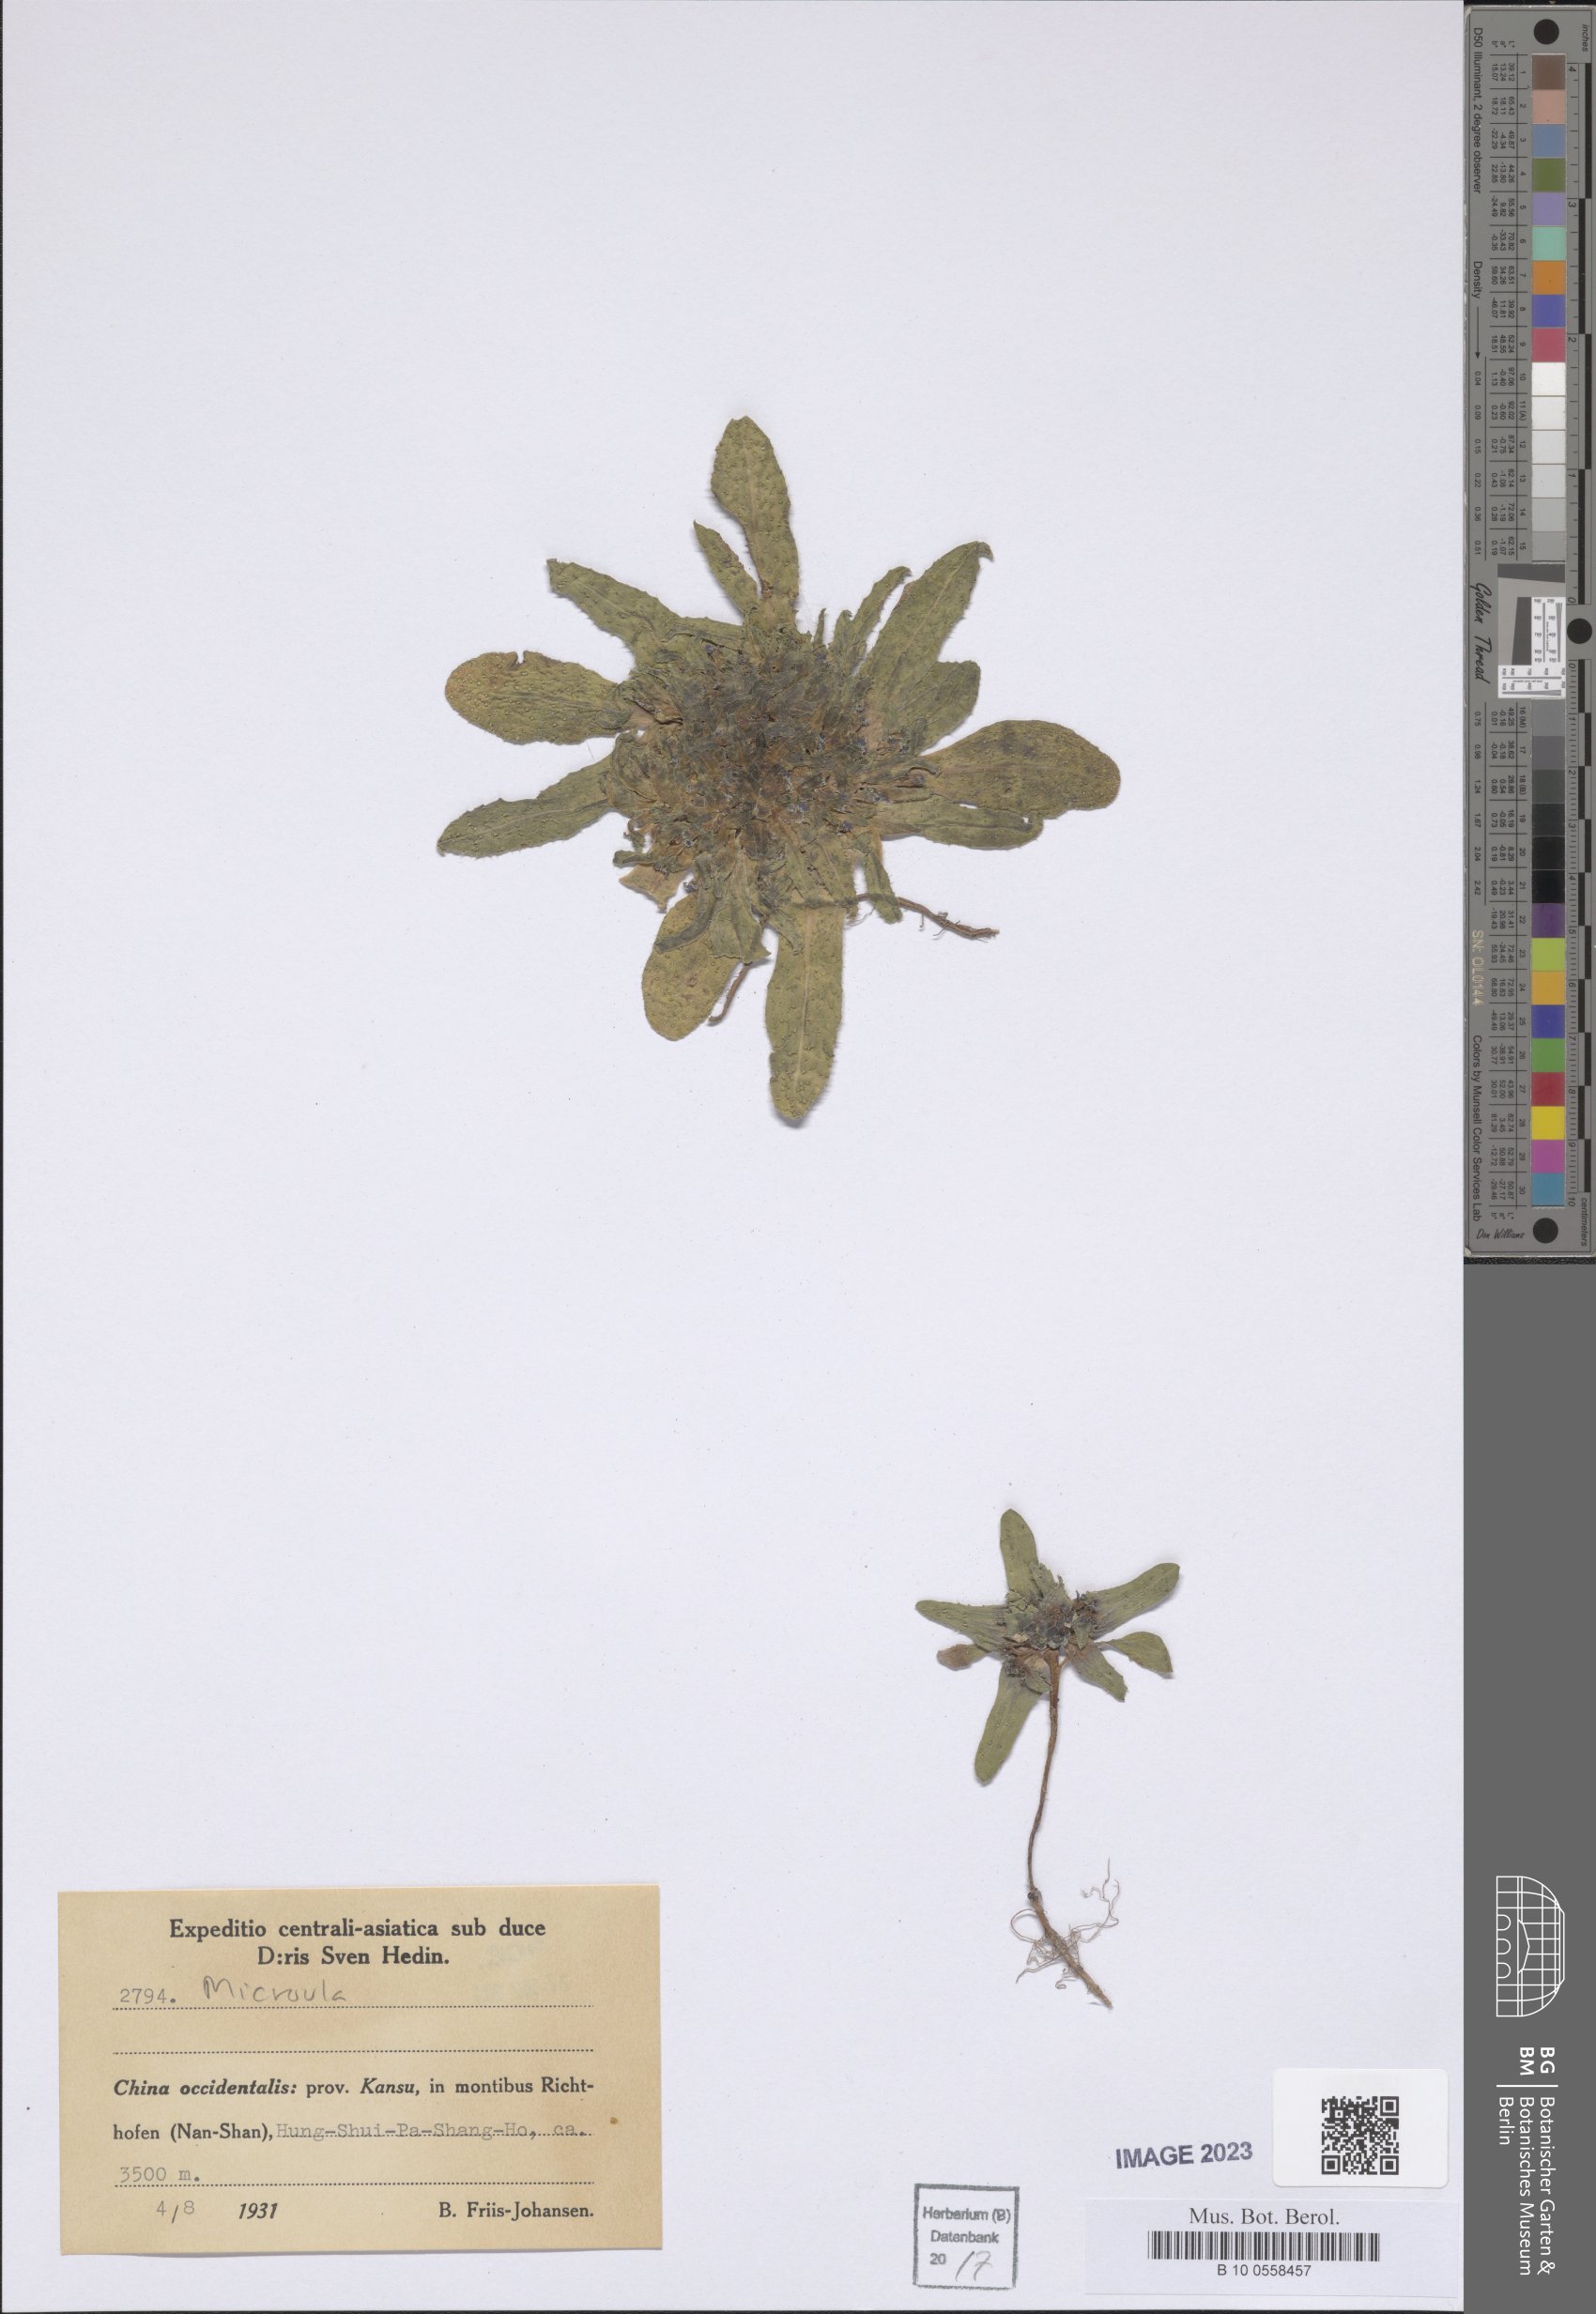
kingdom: Plantae
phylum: Tracheophyta
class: Magnoliopsida
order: Boraginales
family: Boraginaceae
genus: Microula
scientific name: Microula
